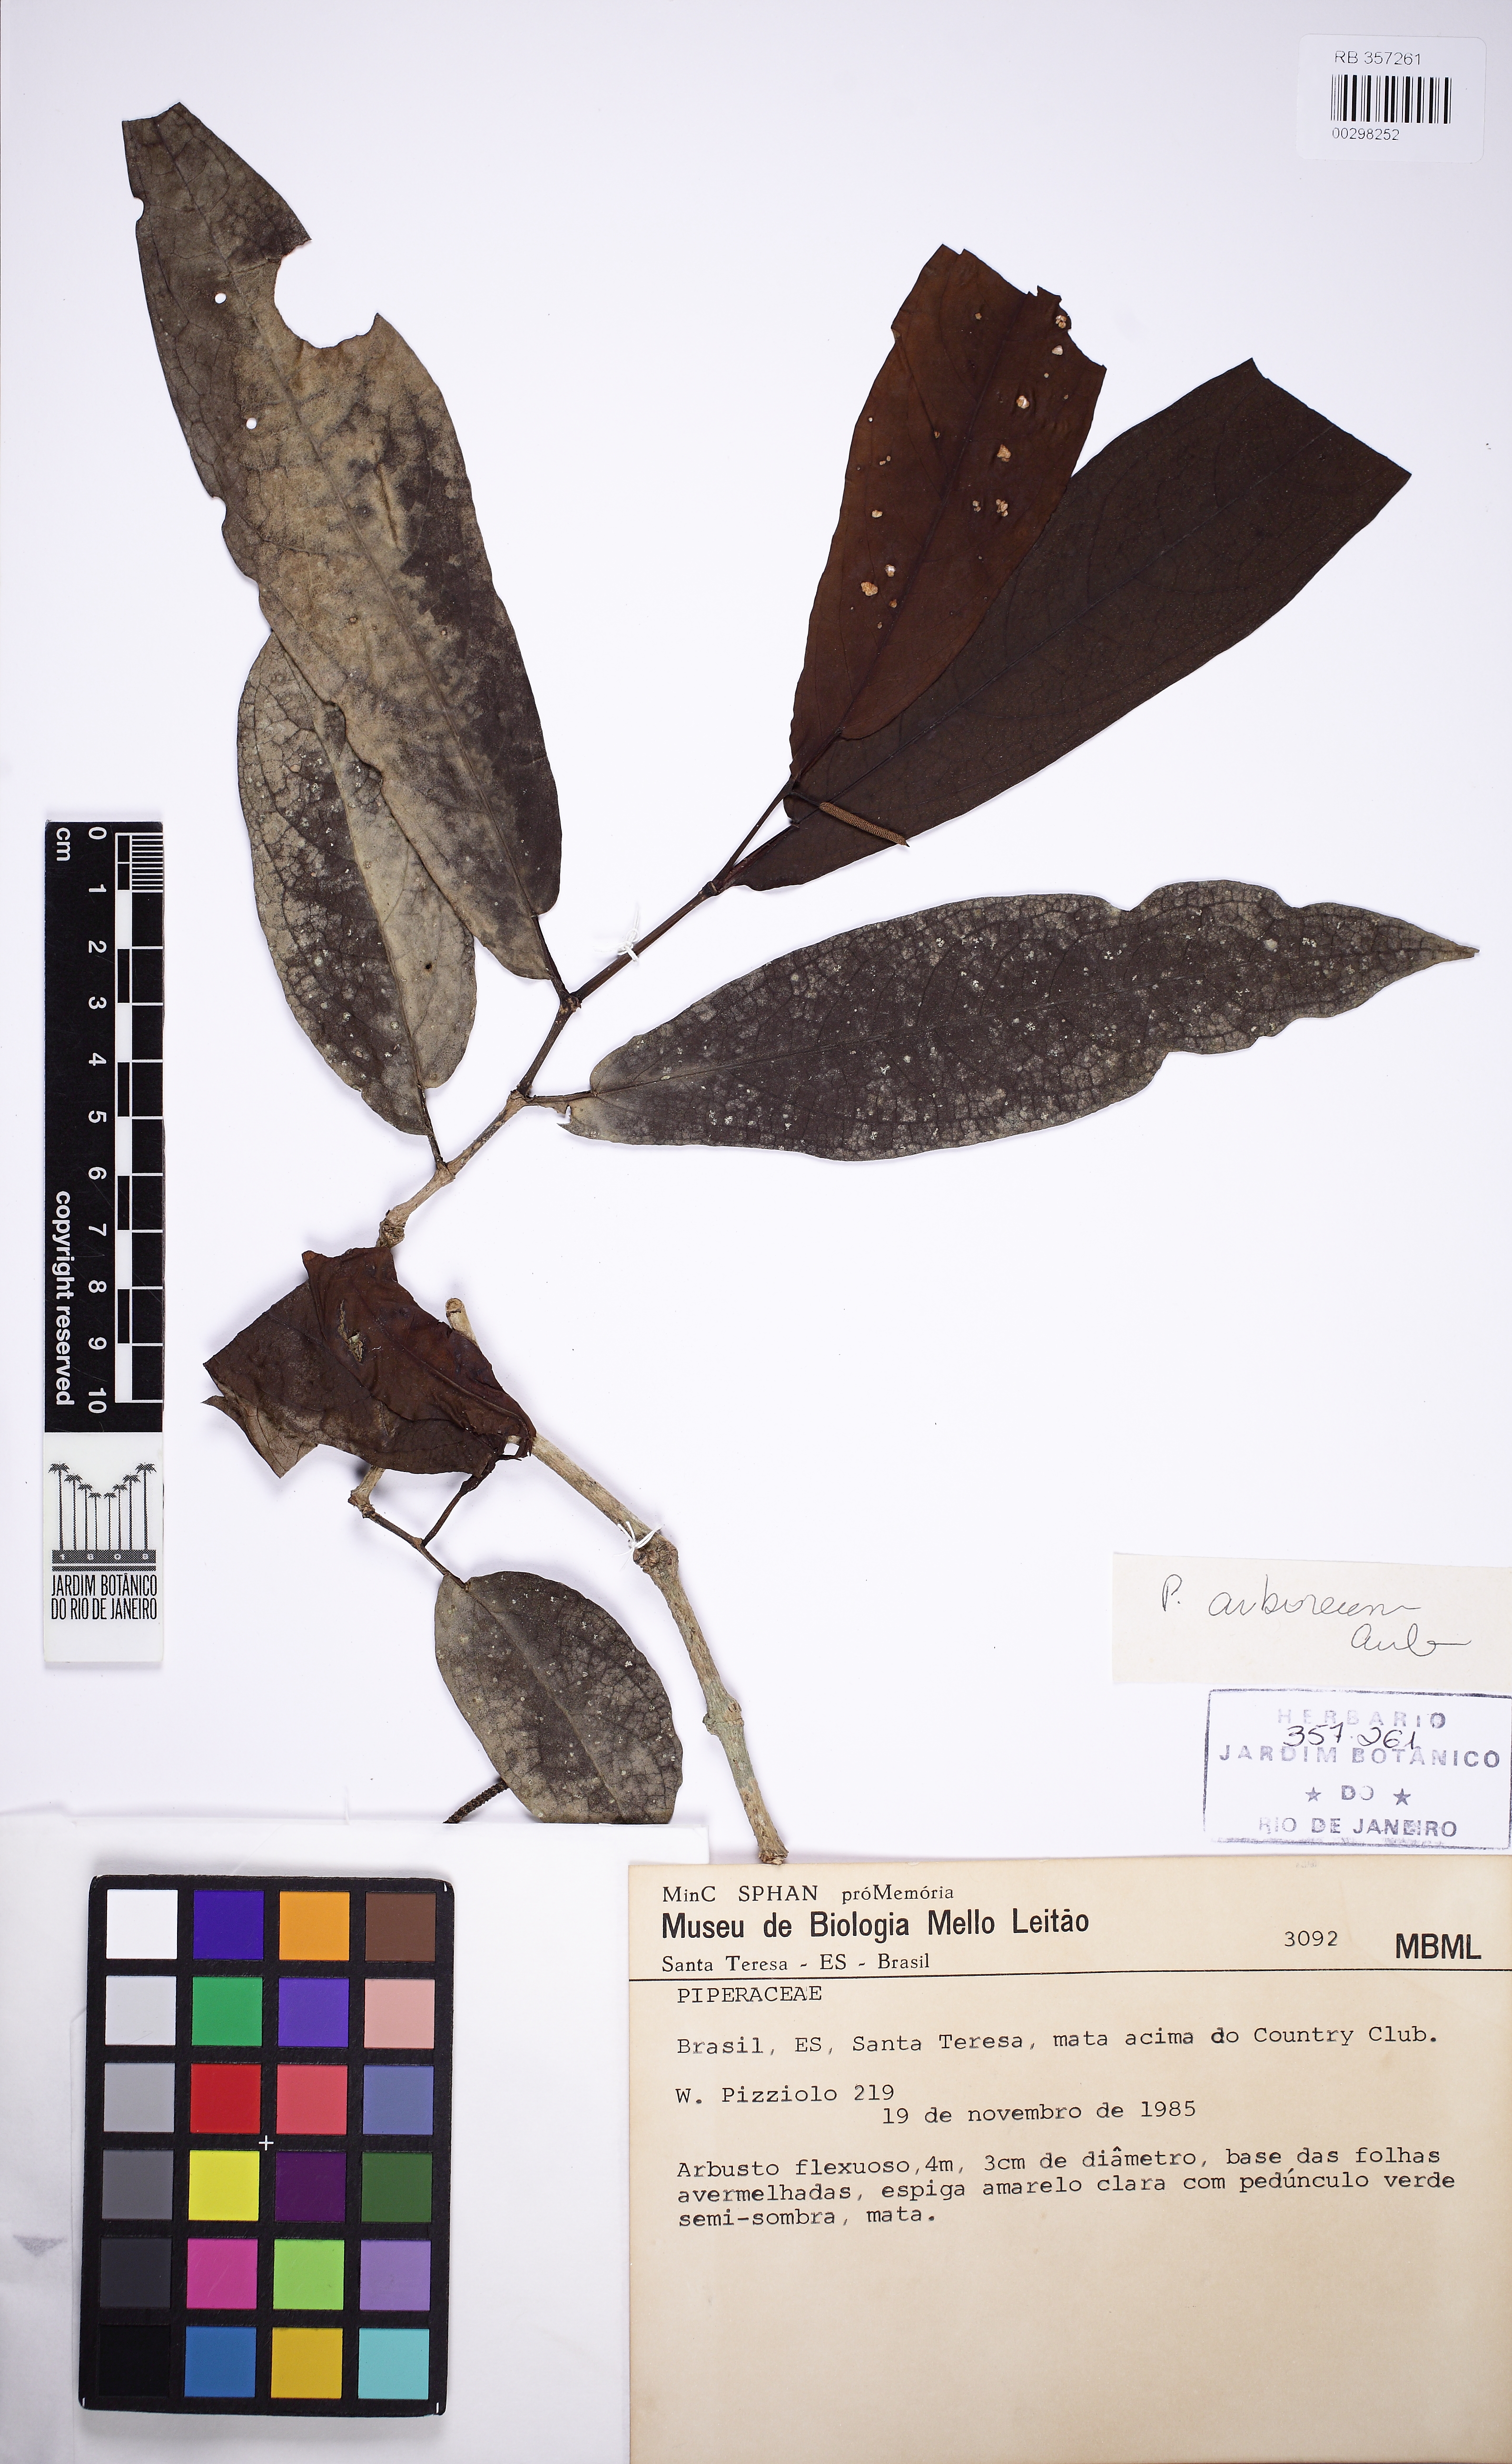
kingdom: Plantae
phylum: Tracheophyta
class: Magnoliopsida
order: Piperales
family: Piperaceae
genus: Piper
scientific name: Piper arboreum
